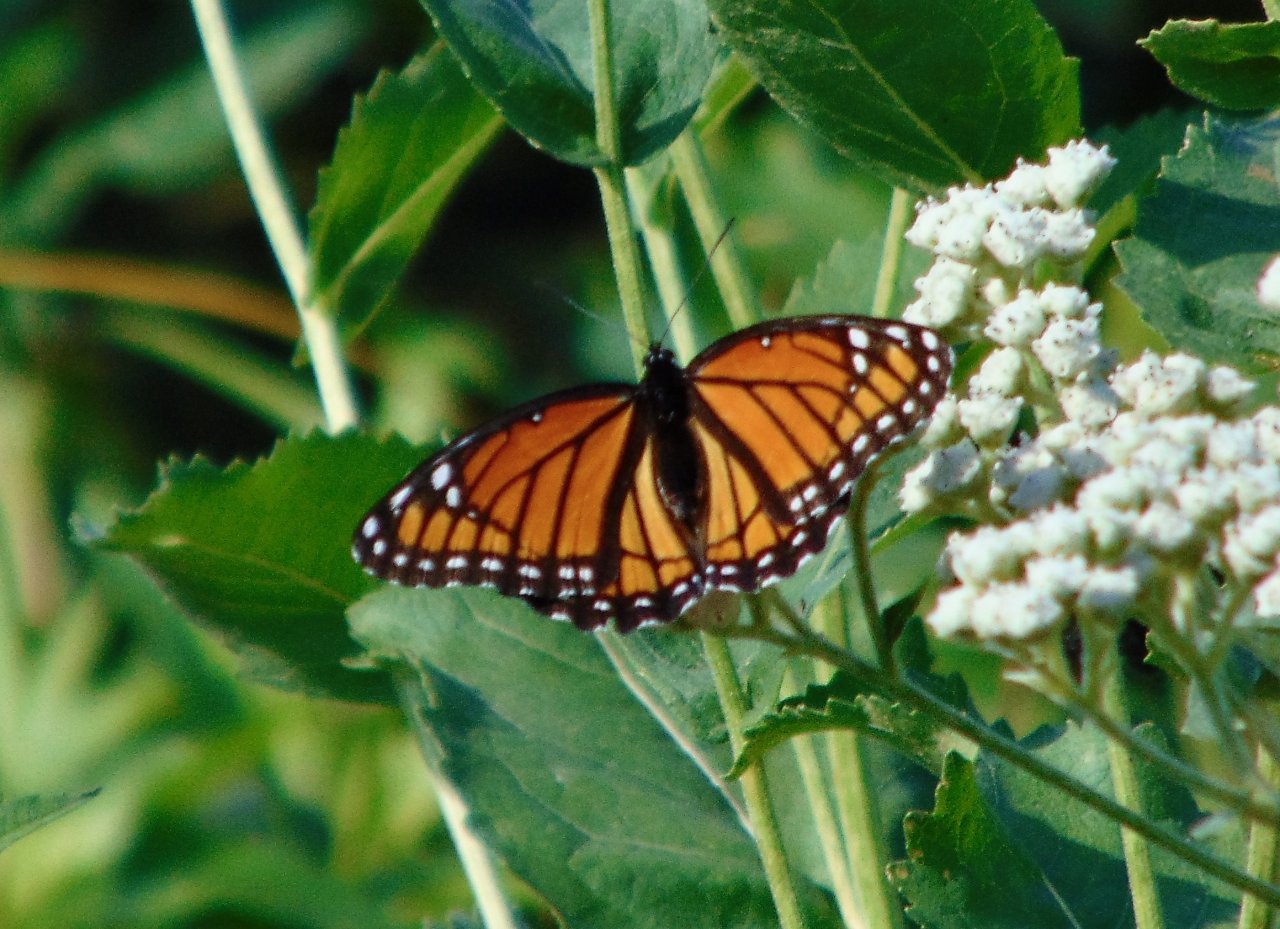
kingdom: Animalia
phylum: Arthropoda
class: Insecta
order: Lepidoptera
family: Nymphalidae
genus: Limenitis
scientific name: Limenitis archippus
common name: Viceroy
